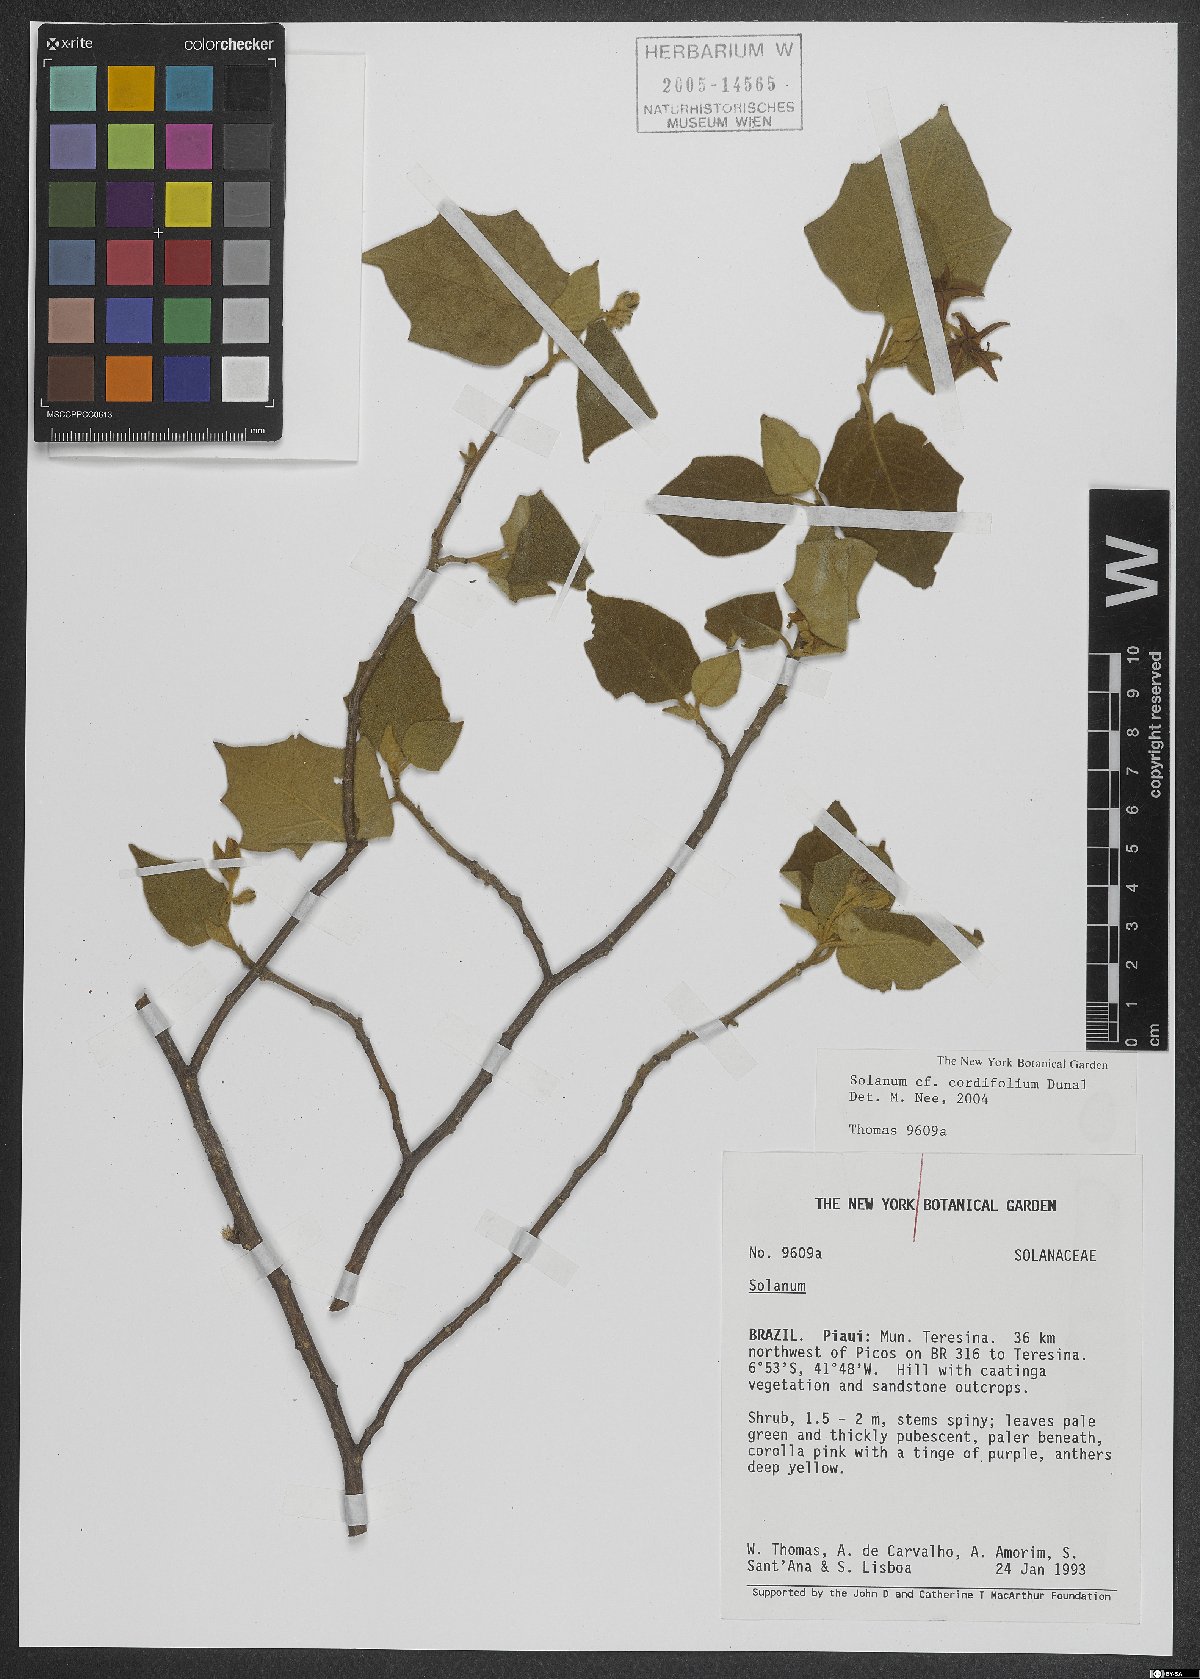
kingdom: Plantae
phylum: Tracheophyta
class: Magnoliopsida
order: Solanales
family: Solanaceae
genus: Solanum
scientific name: Solanum cordifolium
